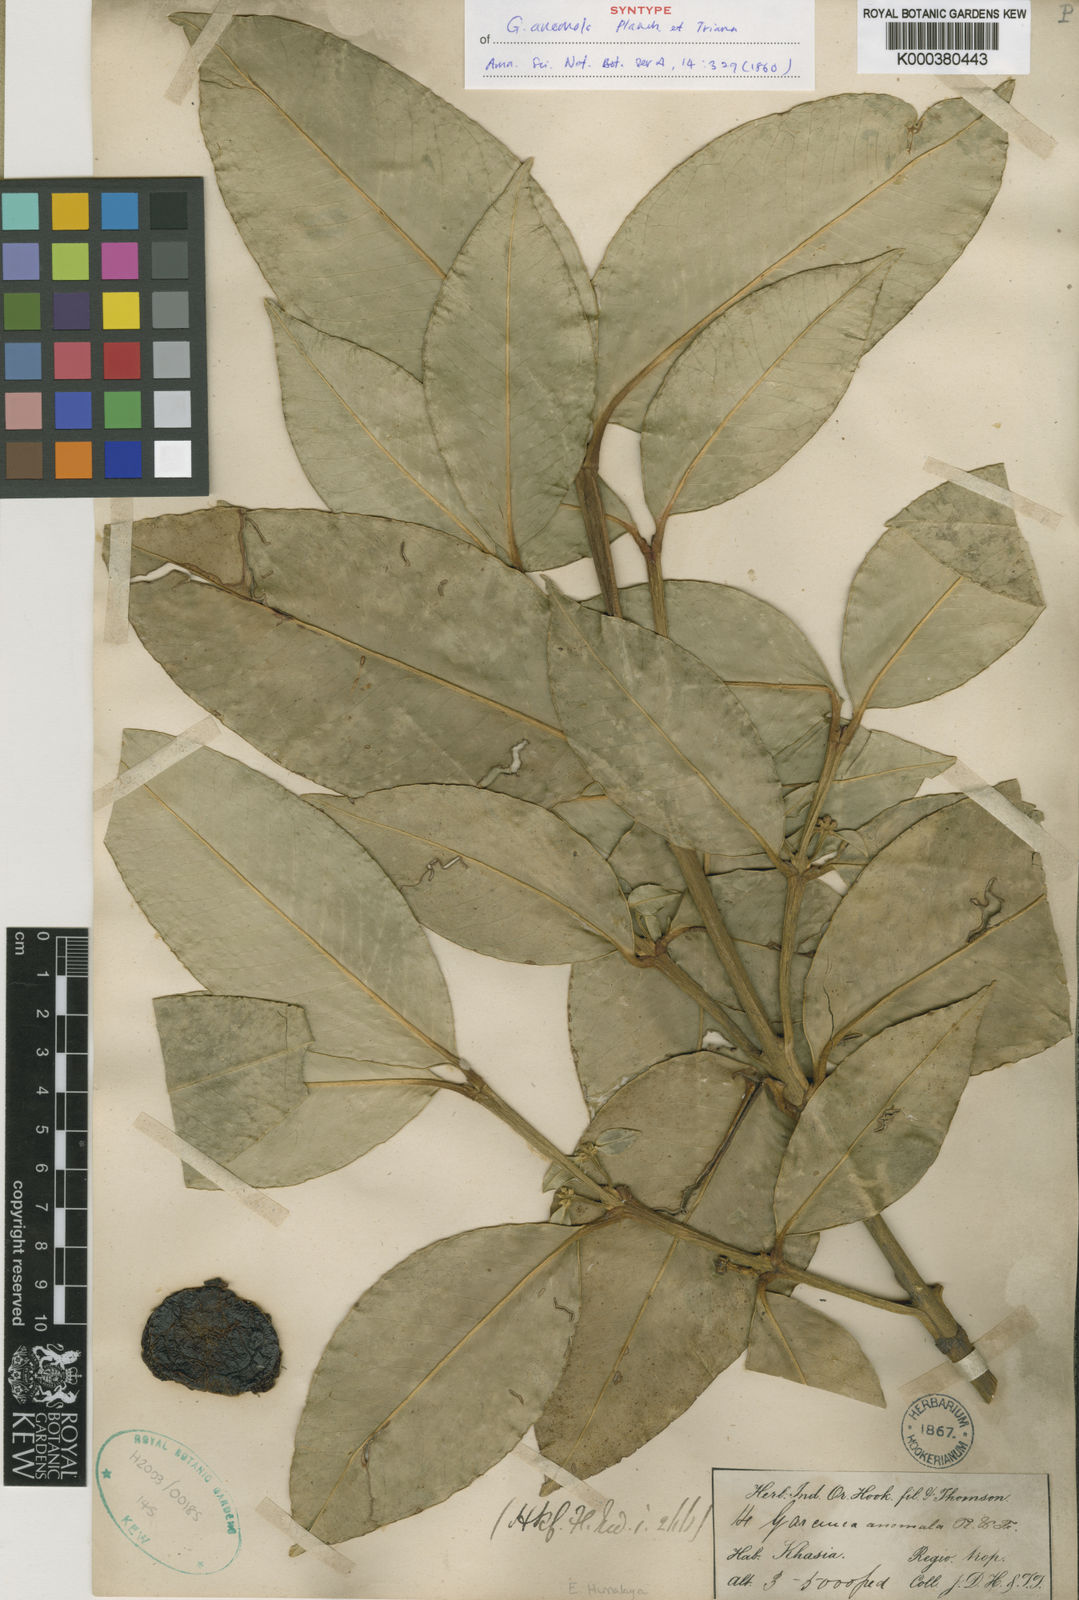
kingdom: Plantae
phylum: Tracheophyta
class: Magnoliopsida
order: Malpighiales
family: Clusiaceae
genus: Garcinia
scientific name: Garcinia anomala
